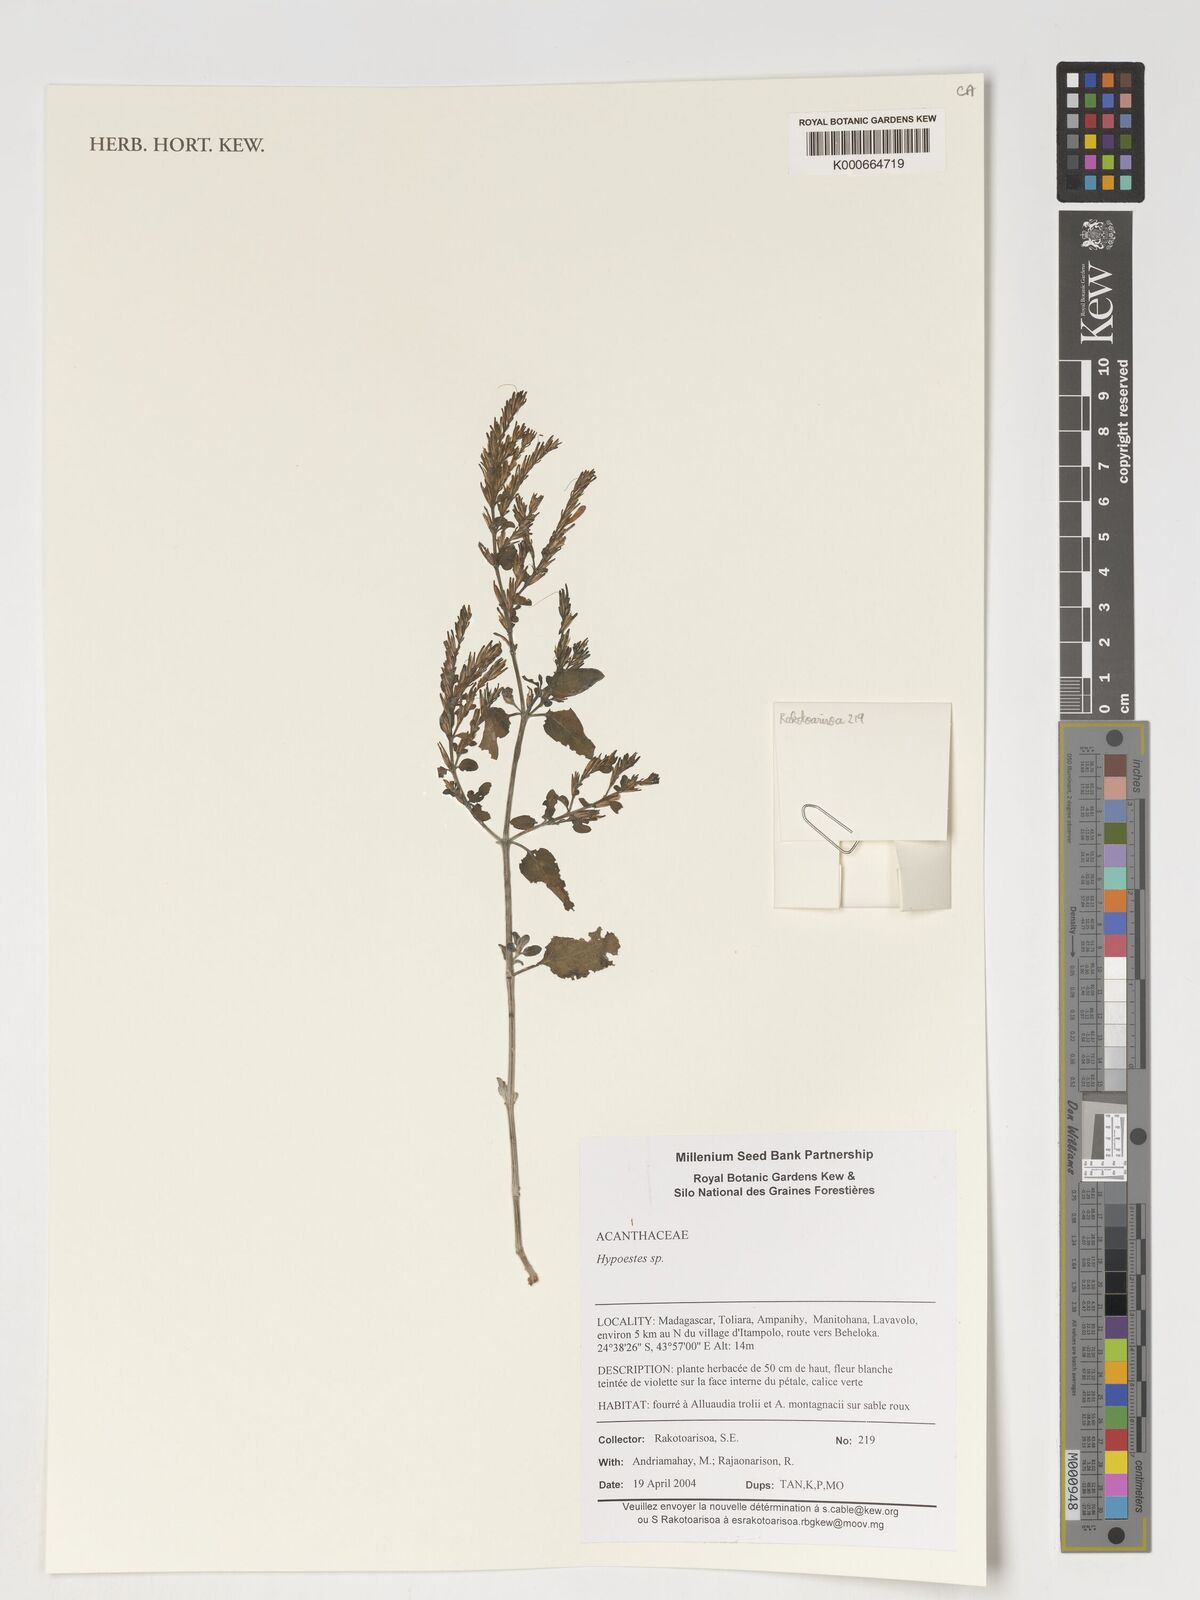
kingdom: Plantae
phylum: Tracheophyta
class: Magnoliopsida
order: Lamiales
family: Acanthaceae
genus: Hypoestes
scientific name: Hypoestes
